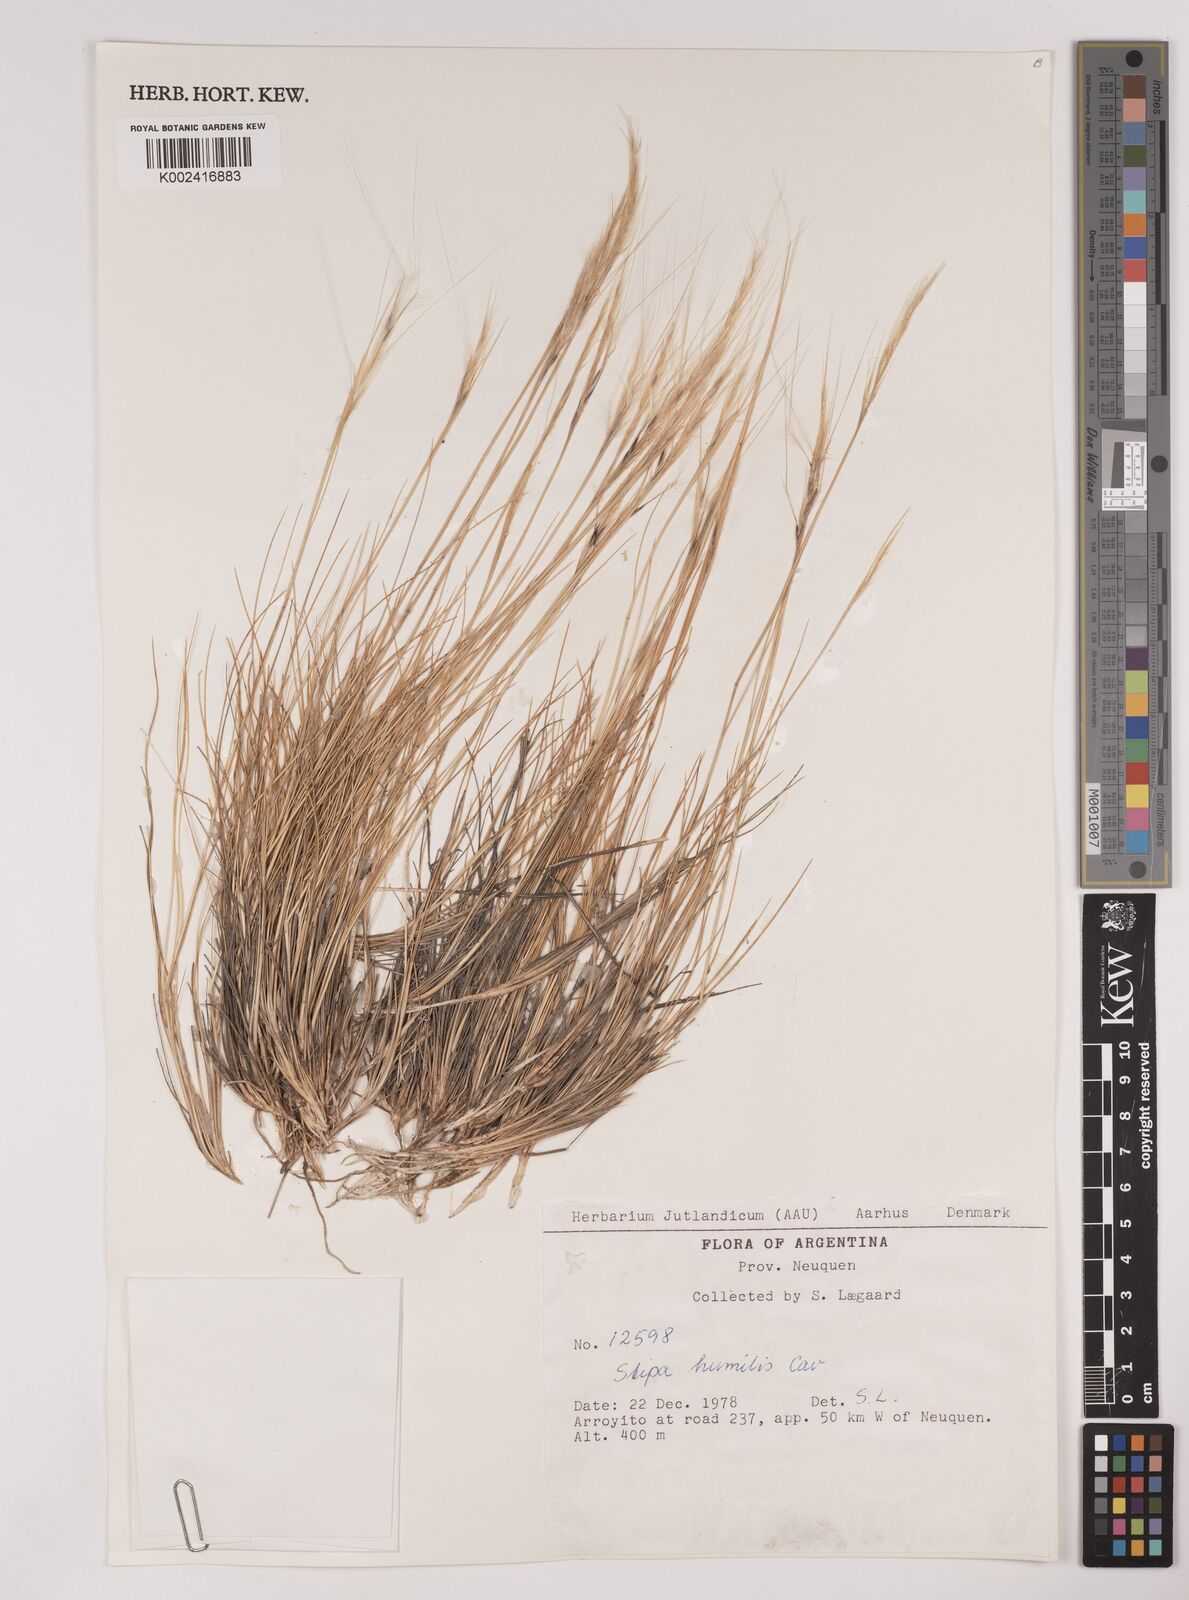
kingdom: Plantae
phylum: Tracheophyta
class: Liliopsida
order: Poales
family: Poaceae
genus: Pappostipa
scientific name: Pappostipa humilis
